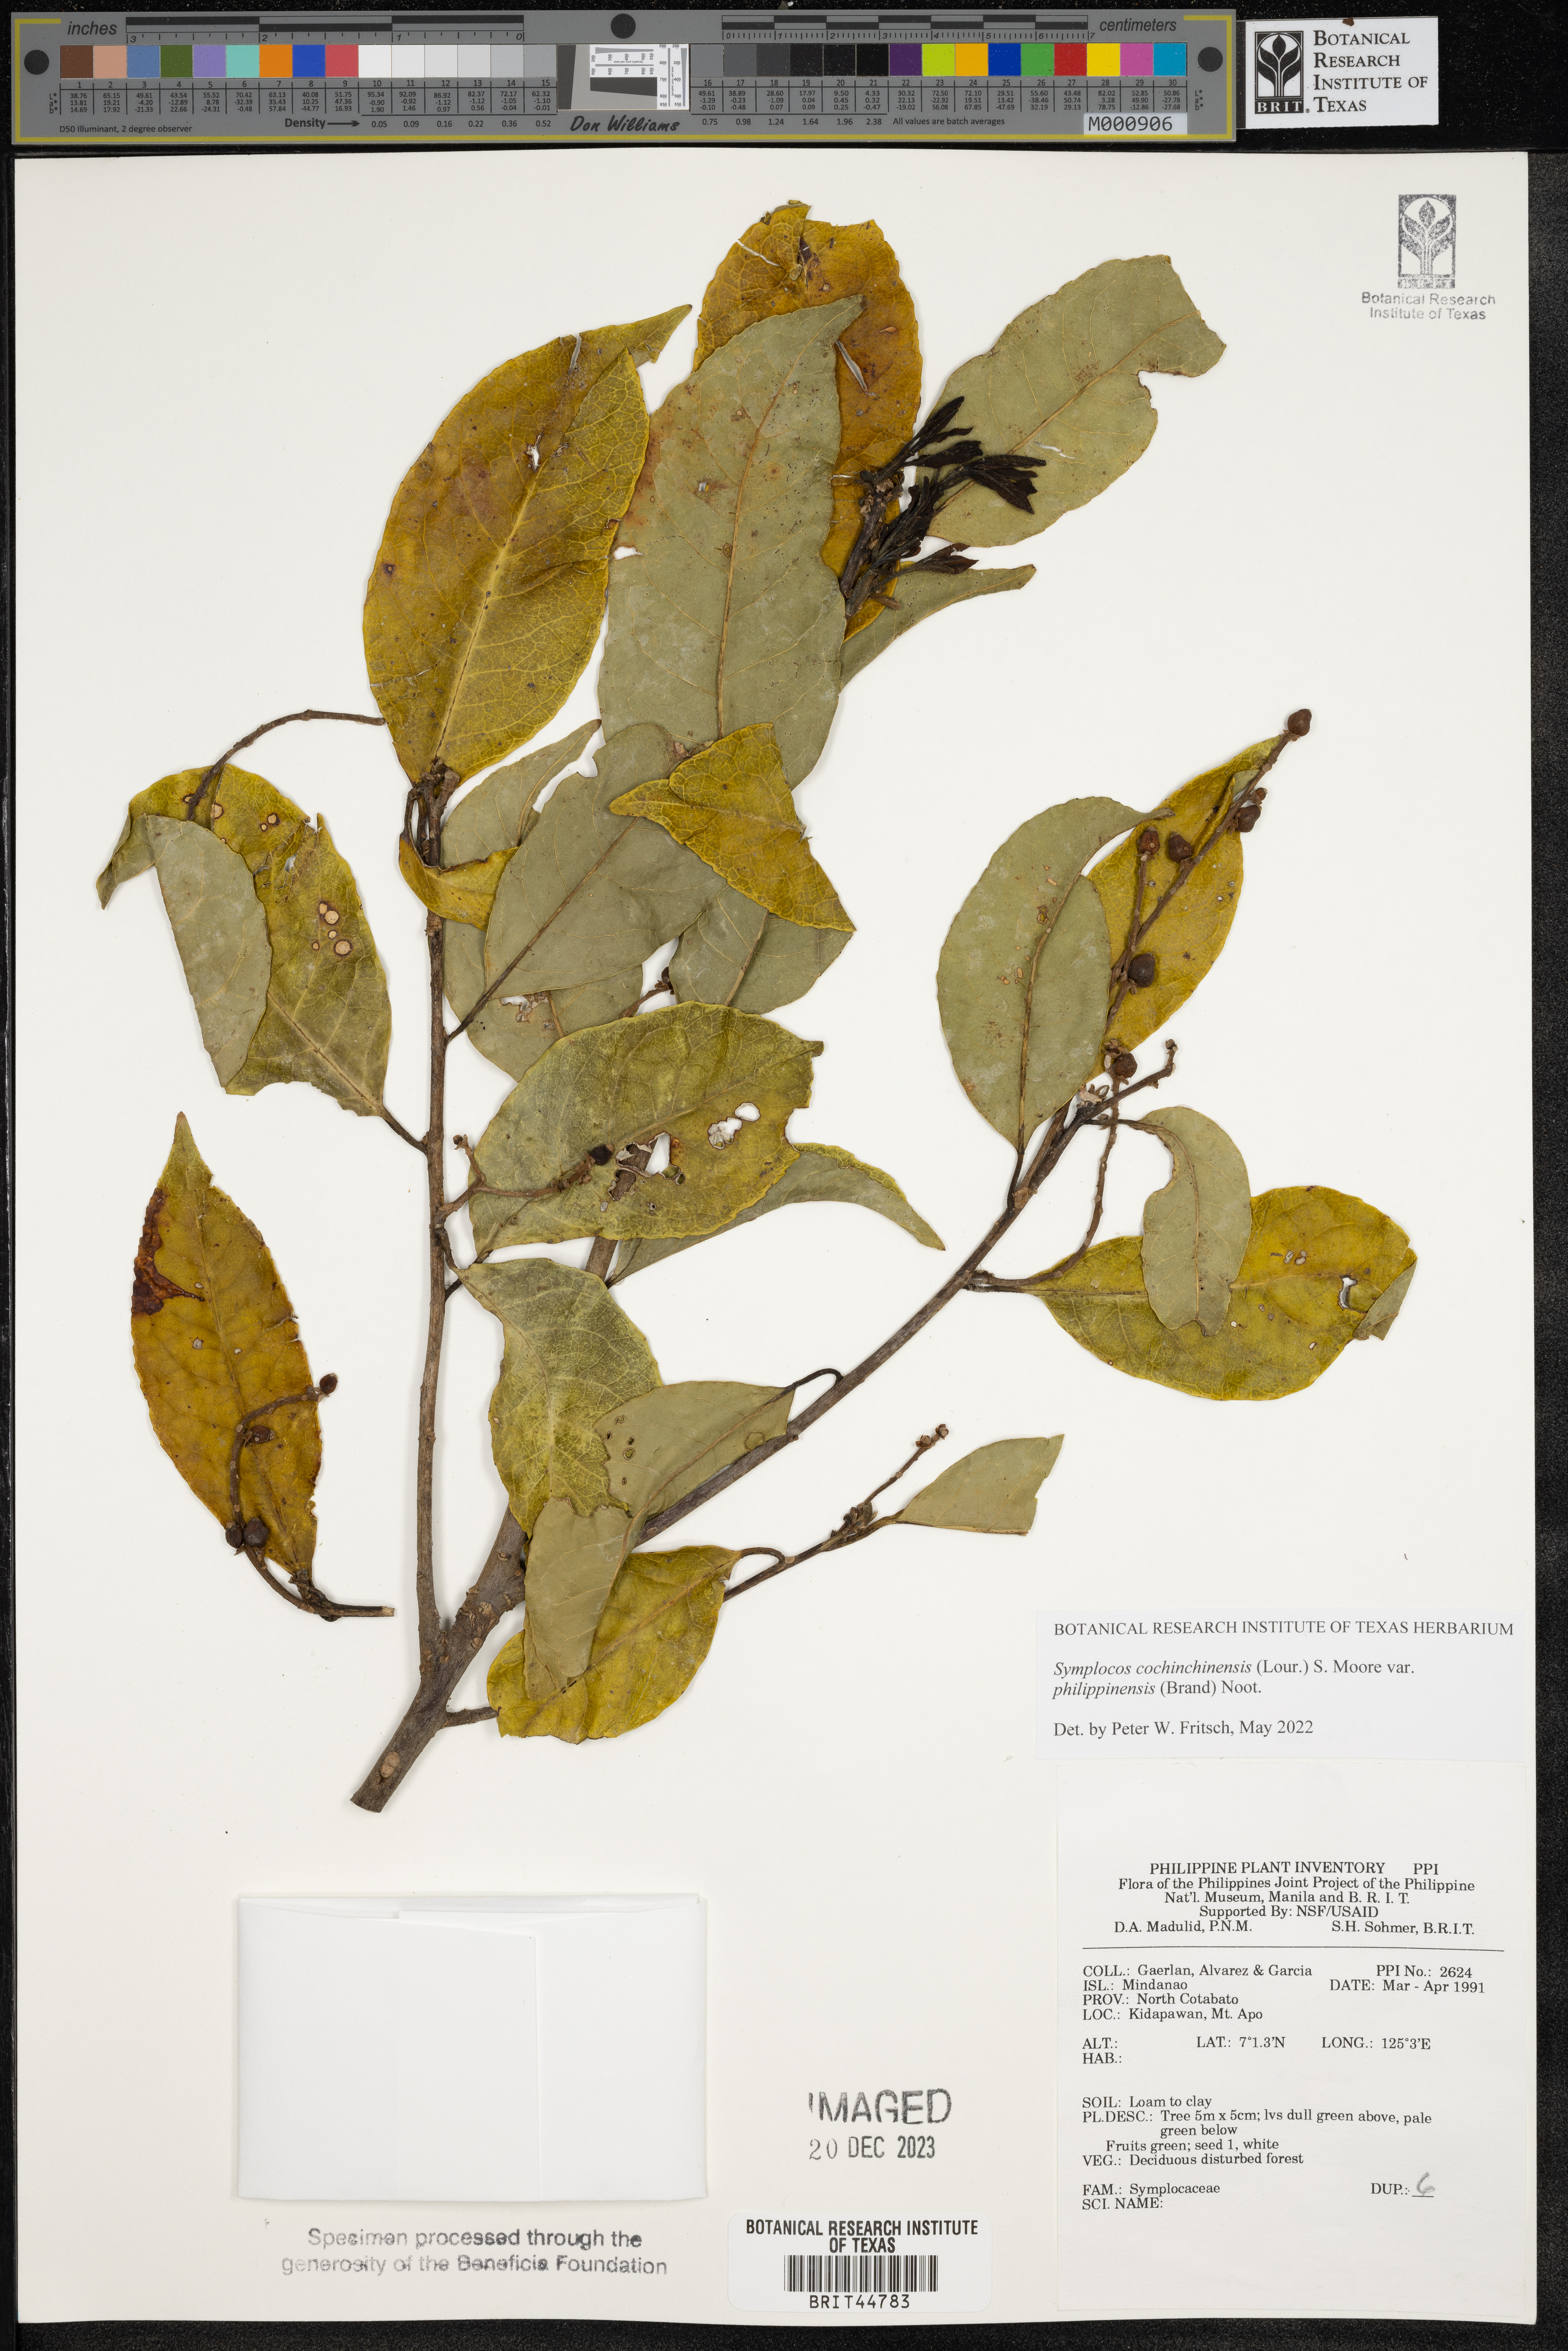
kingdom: Plantae
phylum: Tracheophyta
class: Magnoliopsida
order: Ericales
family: Symplocaceae
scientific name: Symplocaceae
